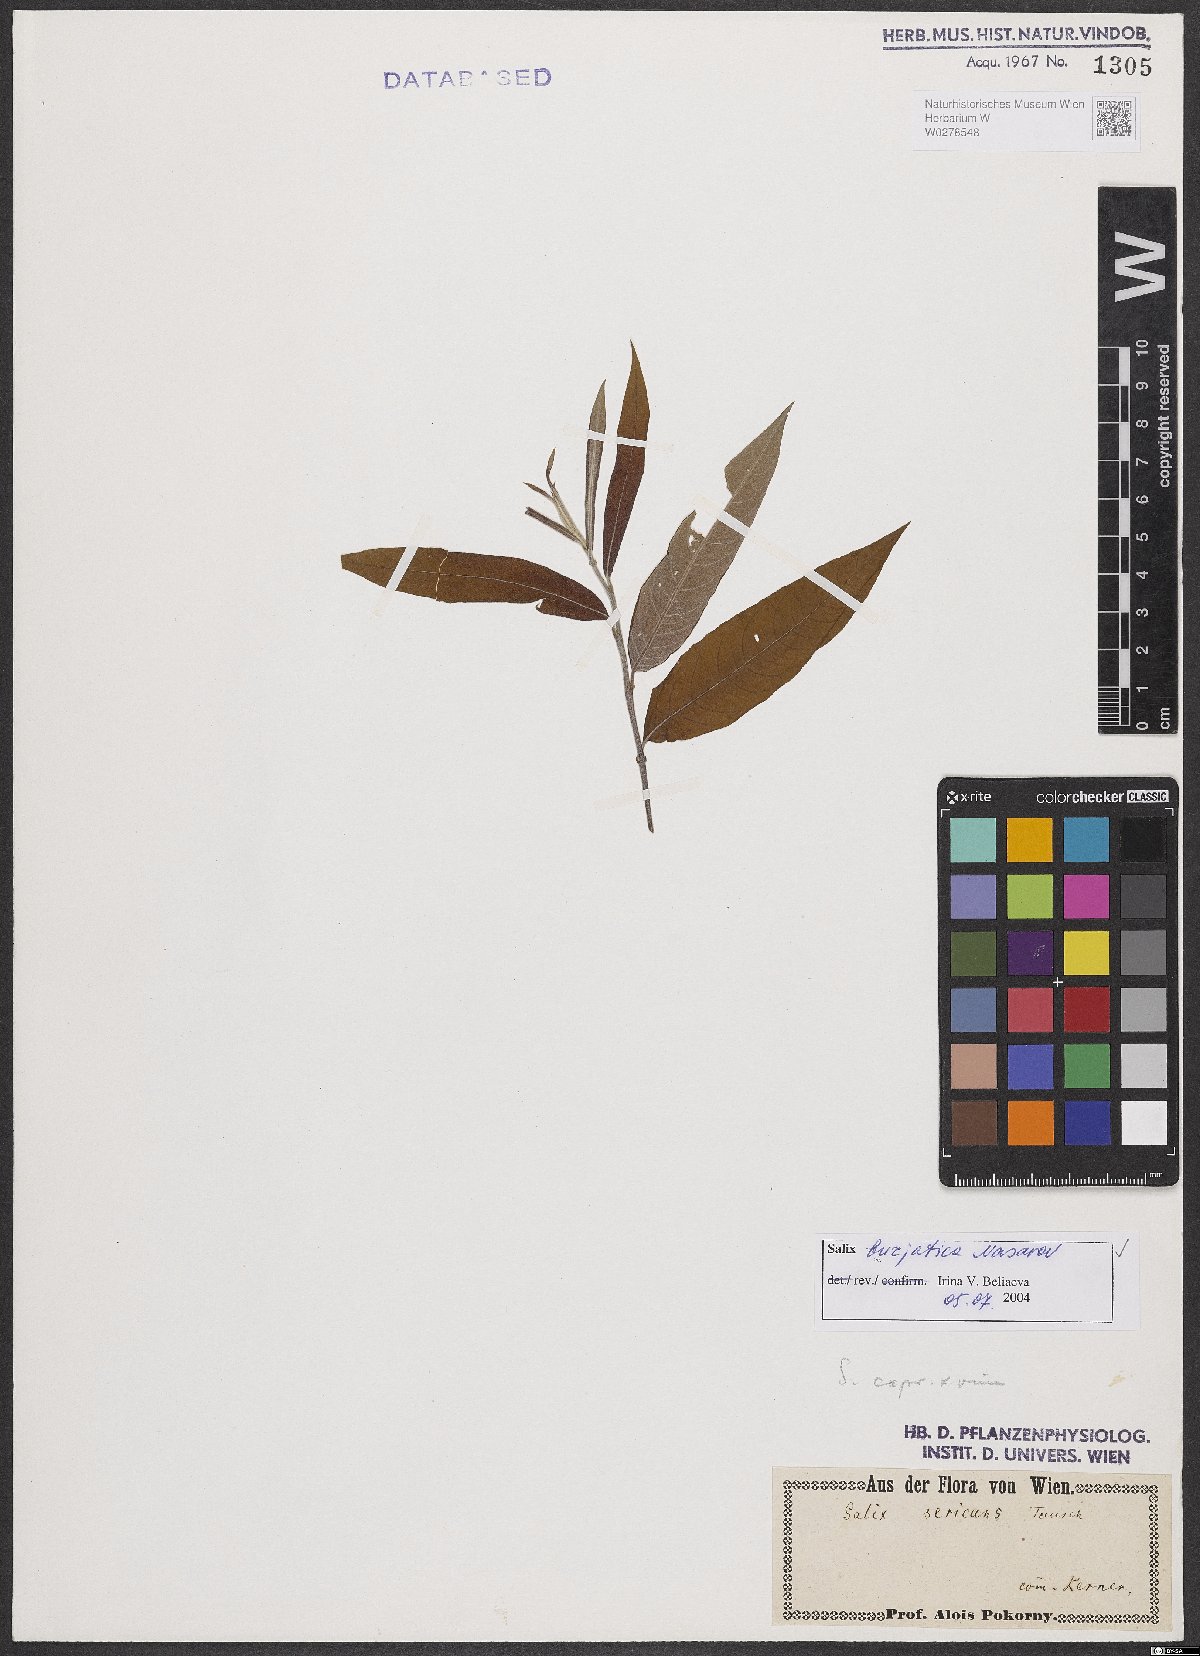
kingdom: Plantae
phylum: Tracheophyta
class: Magnoliopsida
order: Malpighiales
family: Salicaceae
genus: Salix
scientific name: Salix gmelinii
